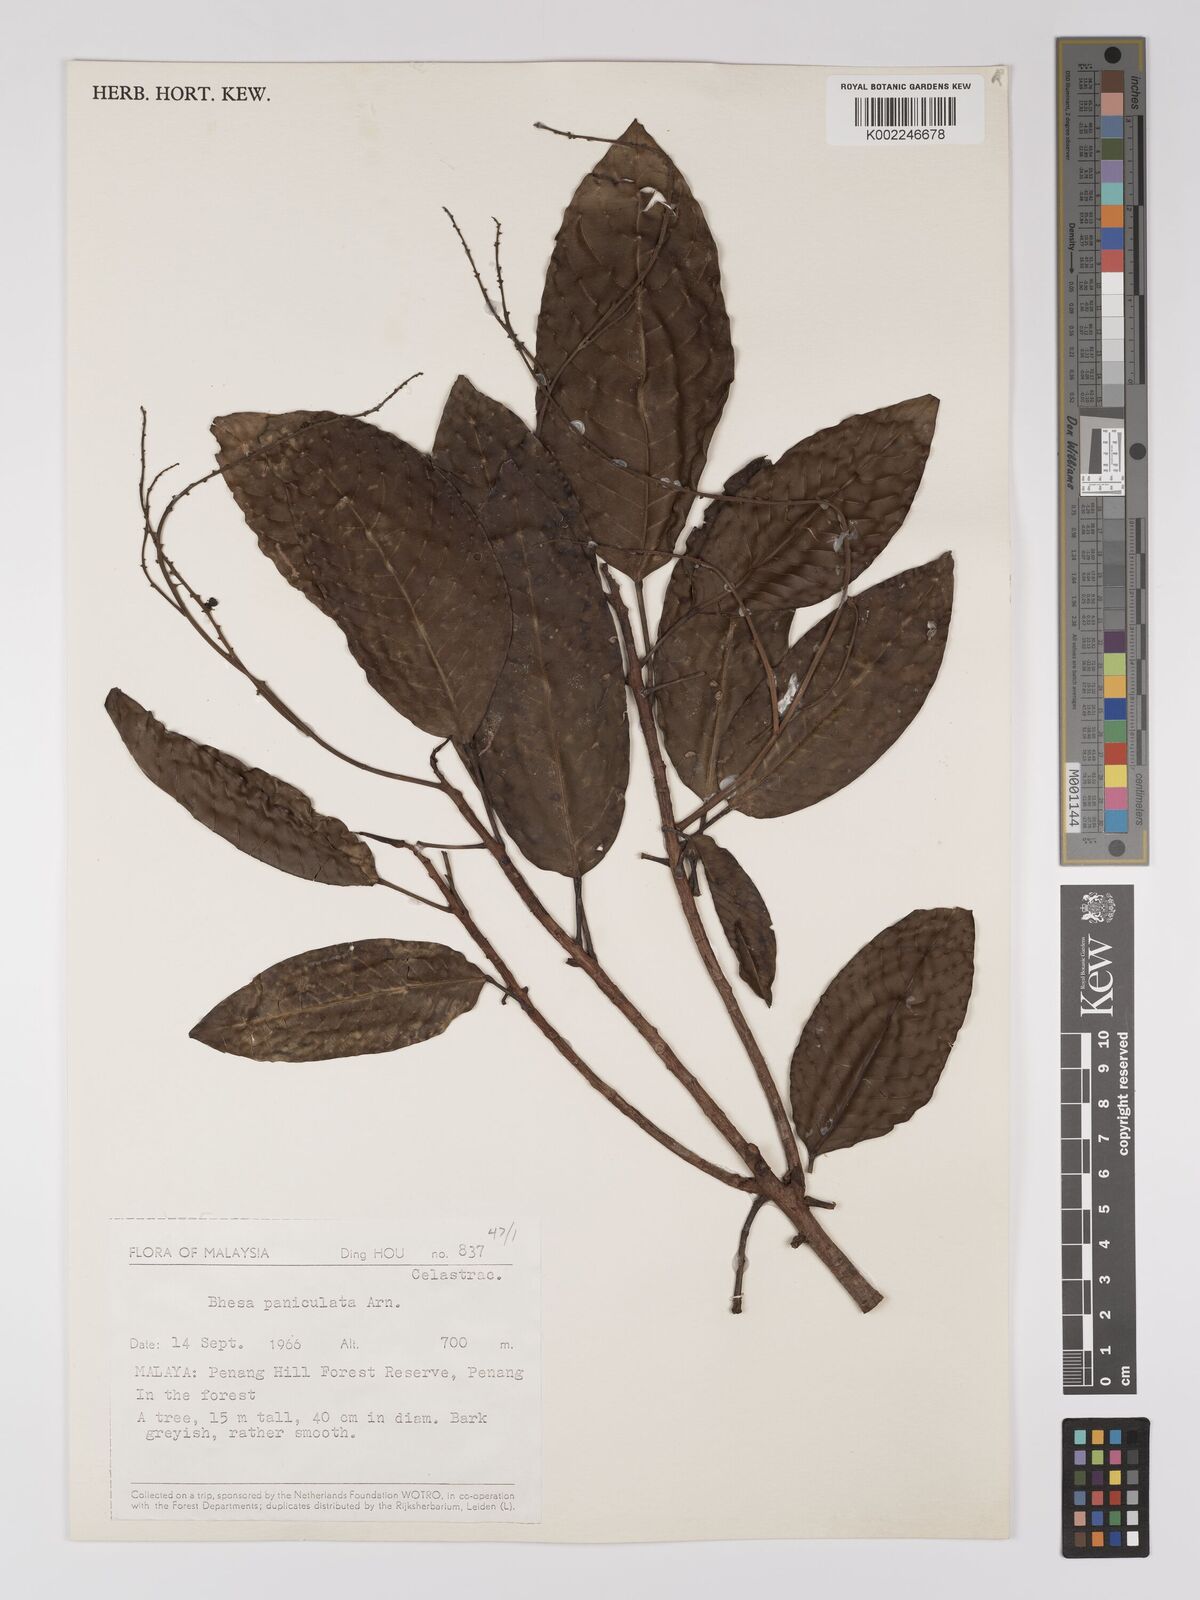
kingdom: Plantae
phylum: Tracheophyta
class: Magnoliopsida
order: Malpighiales
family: Centroplacaceae
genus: Bhesa
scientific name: Bhesa paniculata
